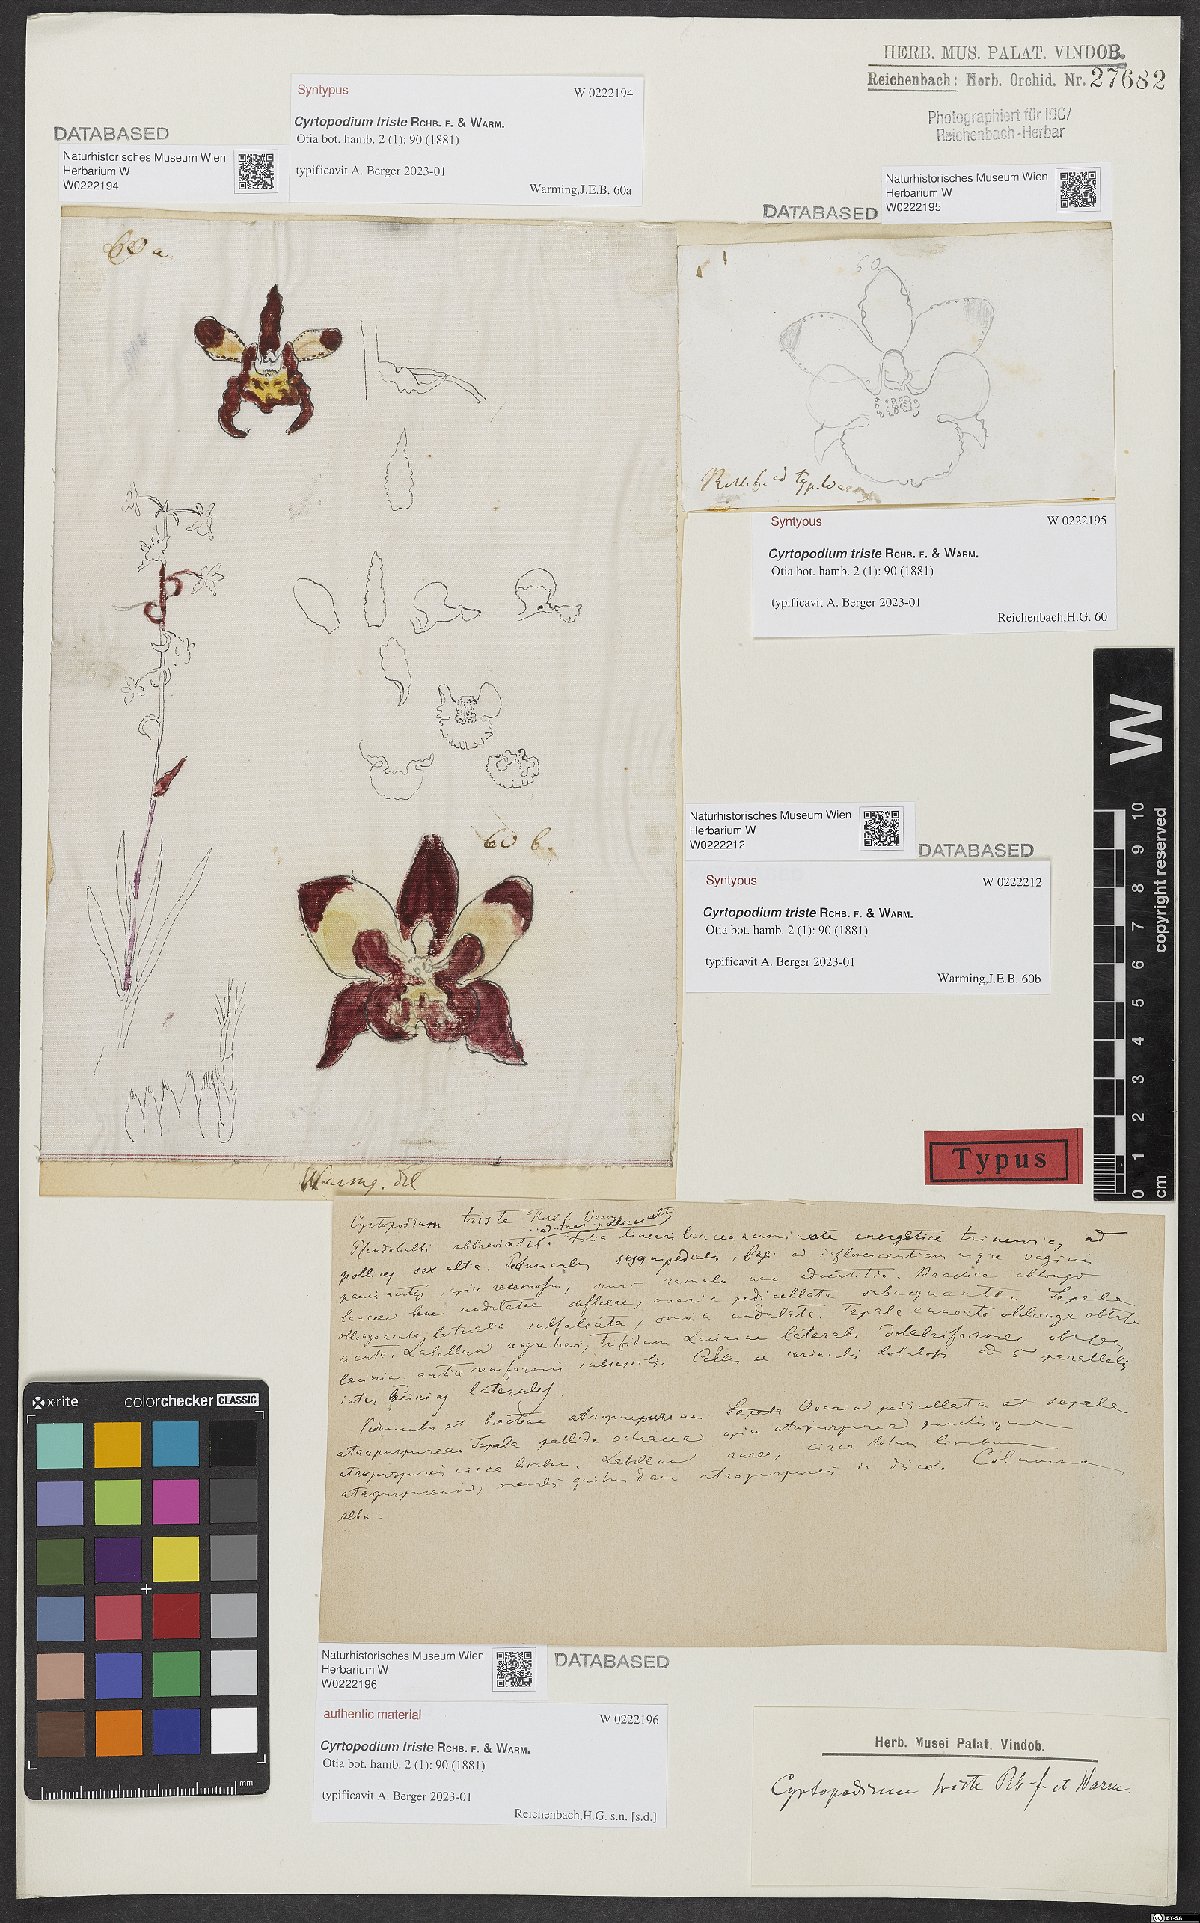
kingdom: Plantae
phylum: Tracheophyta
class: Liliopsida
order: Asparagales
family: Orchidaceae
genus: Cyrtopodium
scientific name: Cyrtopodium triste
